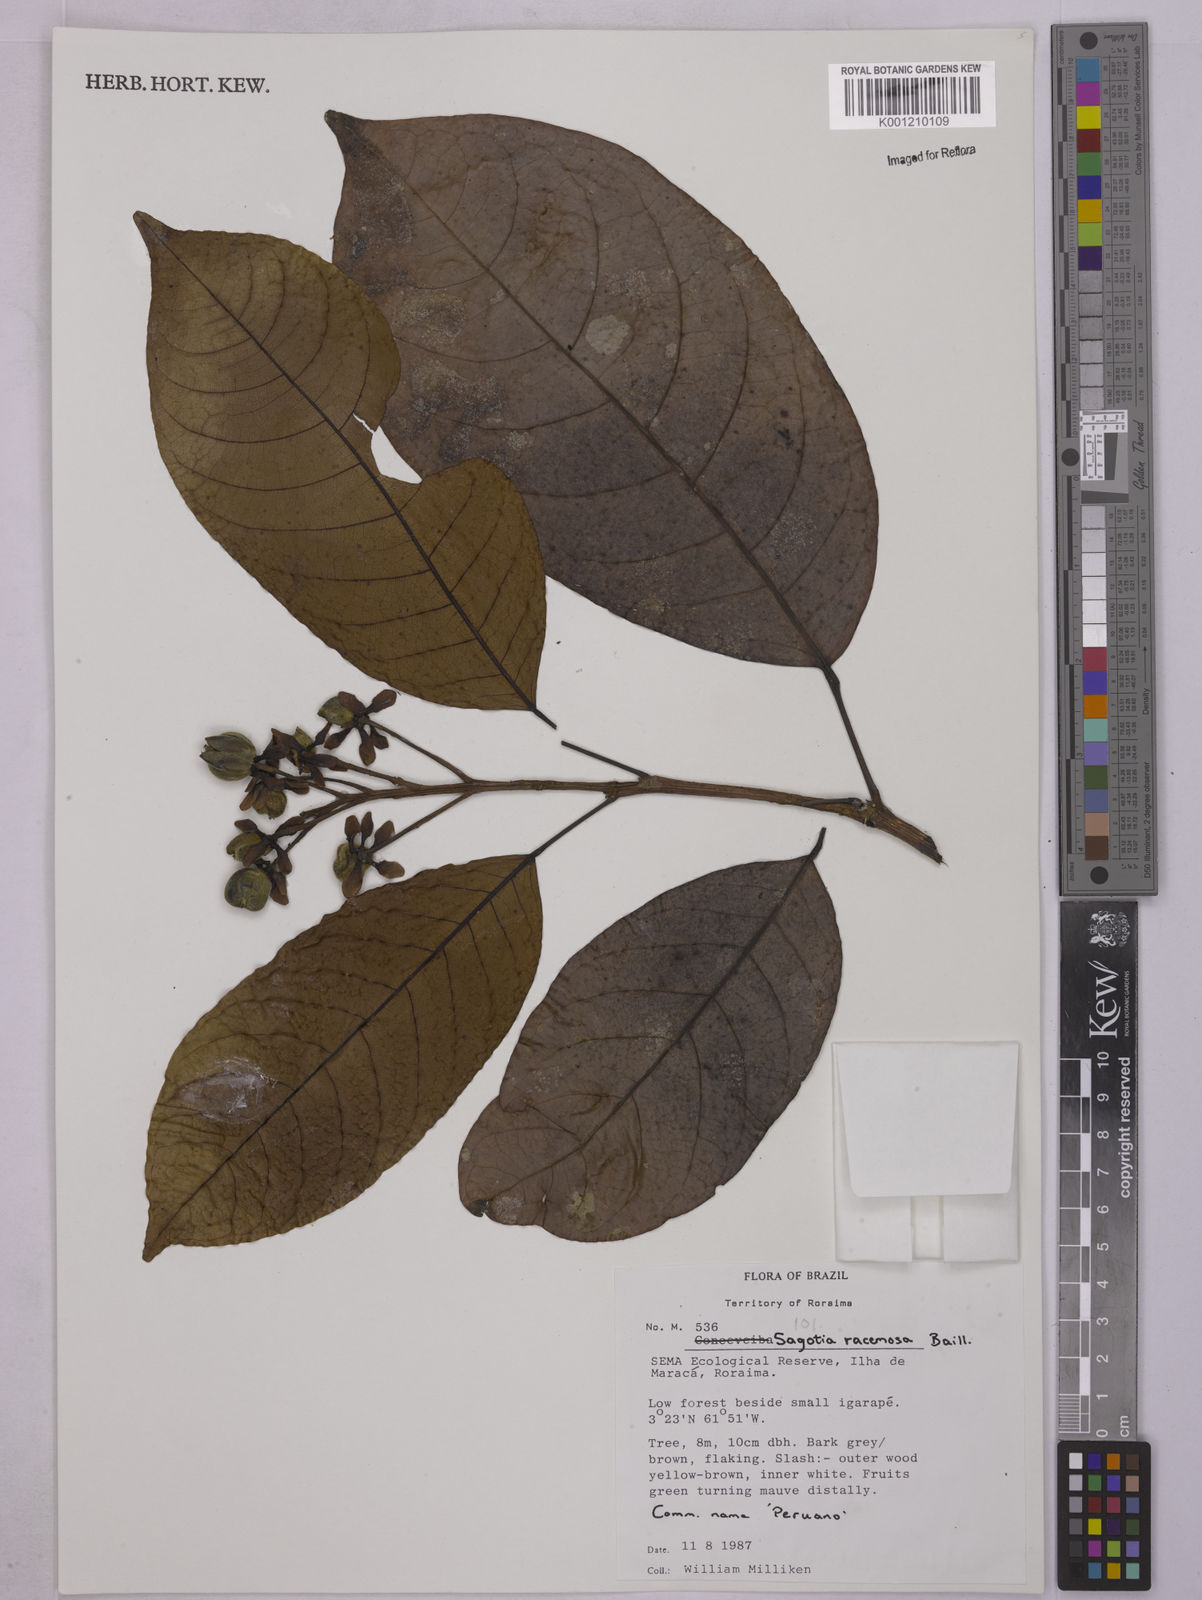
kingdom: Plantae
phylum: Tracheophyta
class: Magnoliopsida
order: Malpighiales
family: Euphorbiaceae
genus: Sagotia
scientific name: Sagotia racemosa
